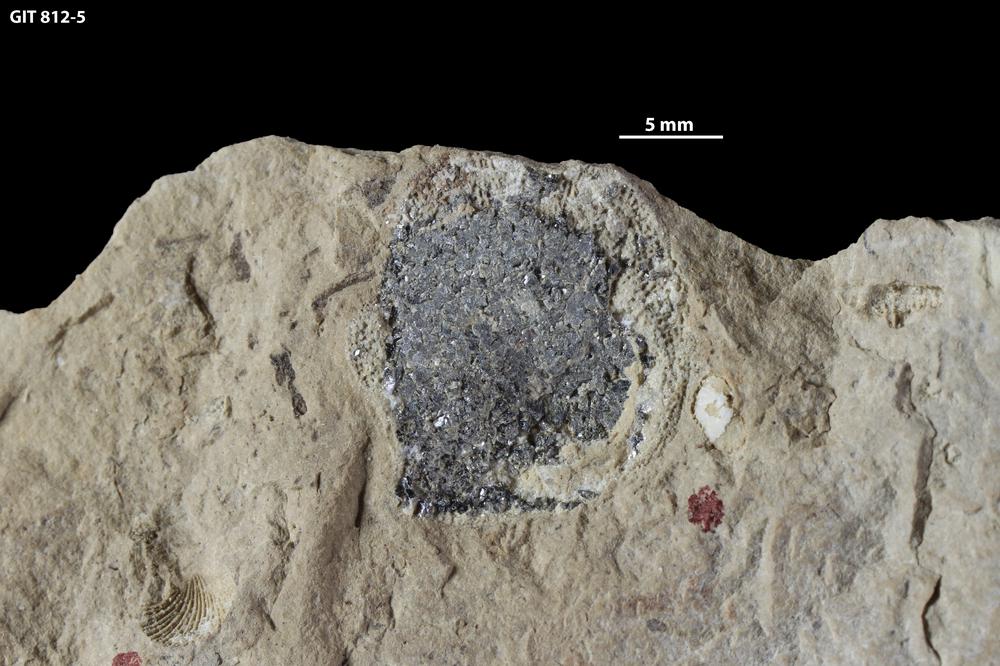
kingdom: Animalia
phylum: Brachiopoda
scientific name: Brachiopoda
